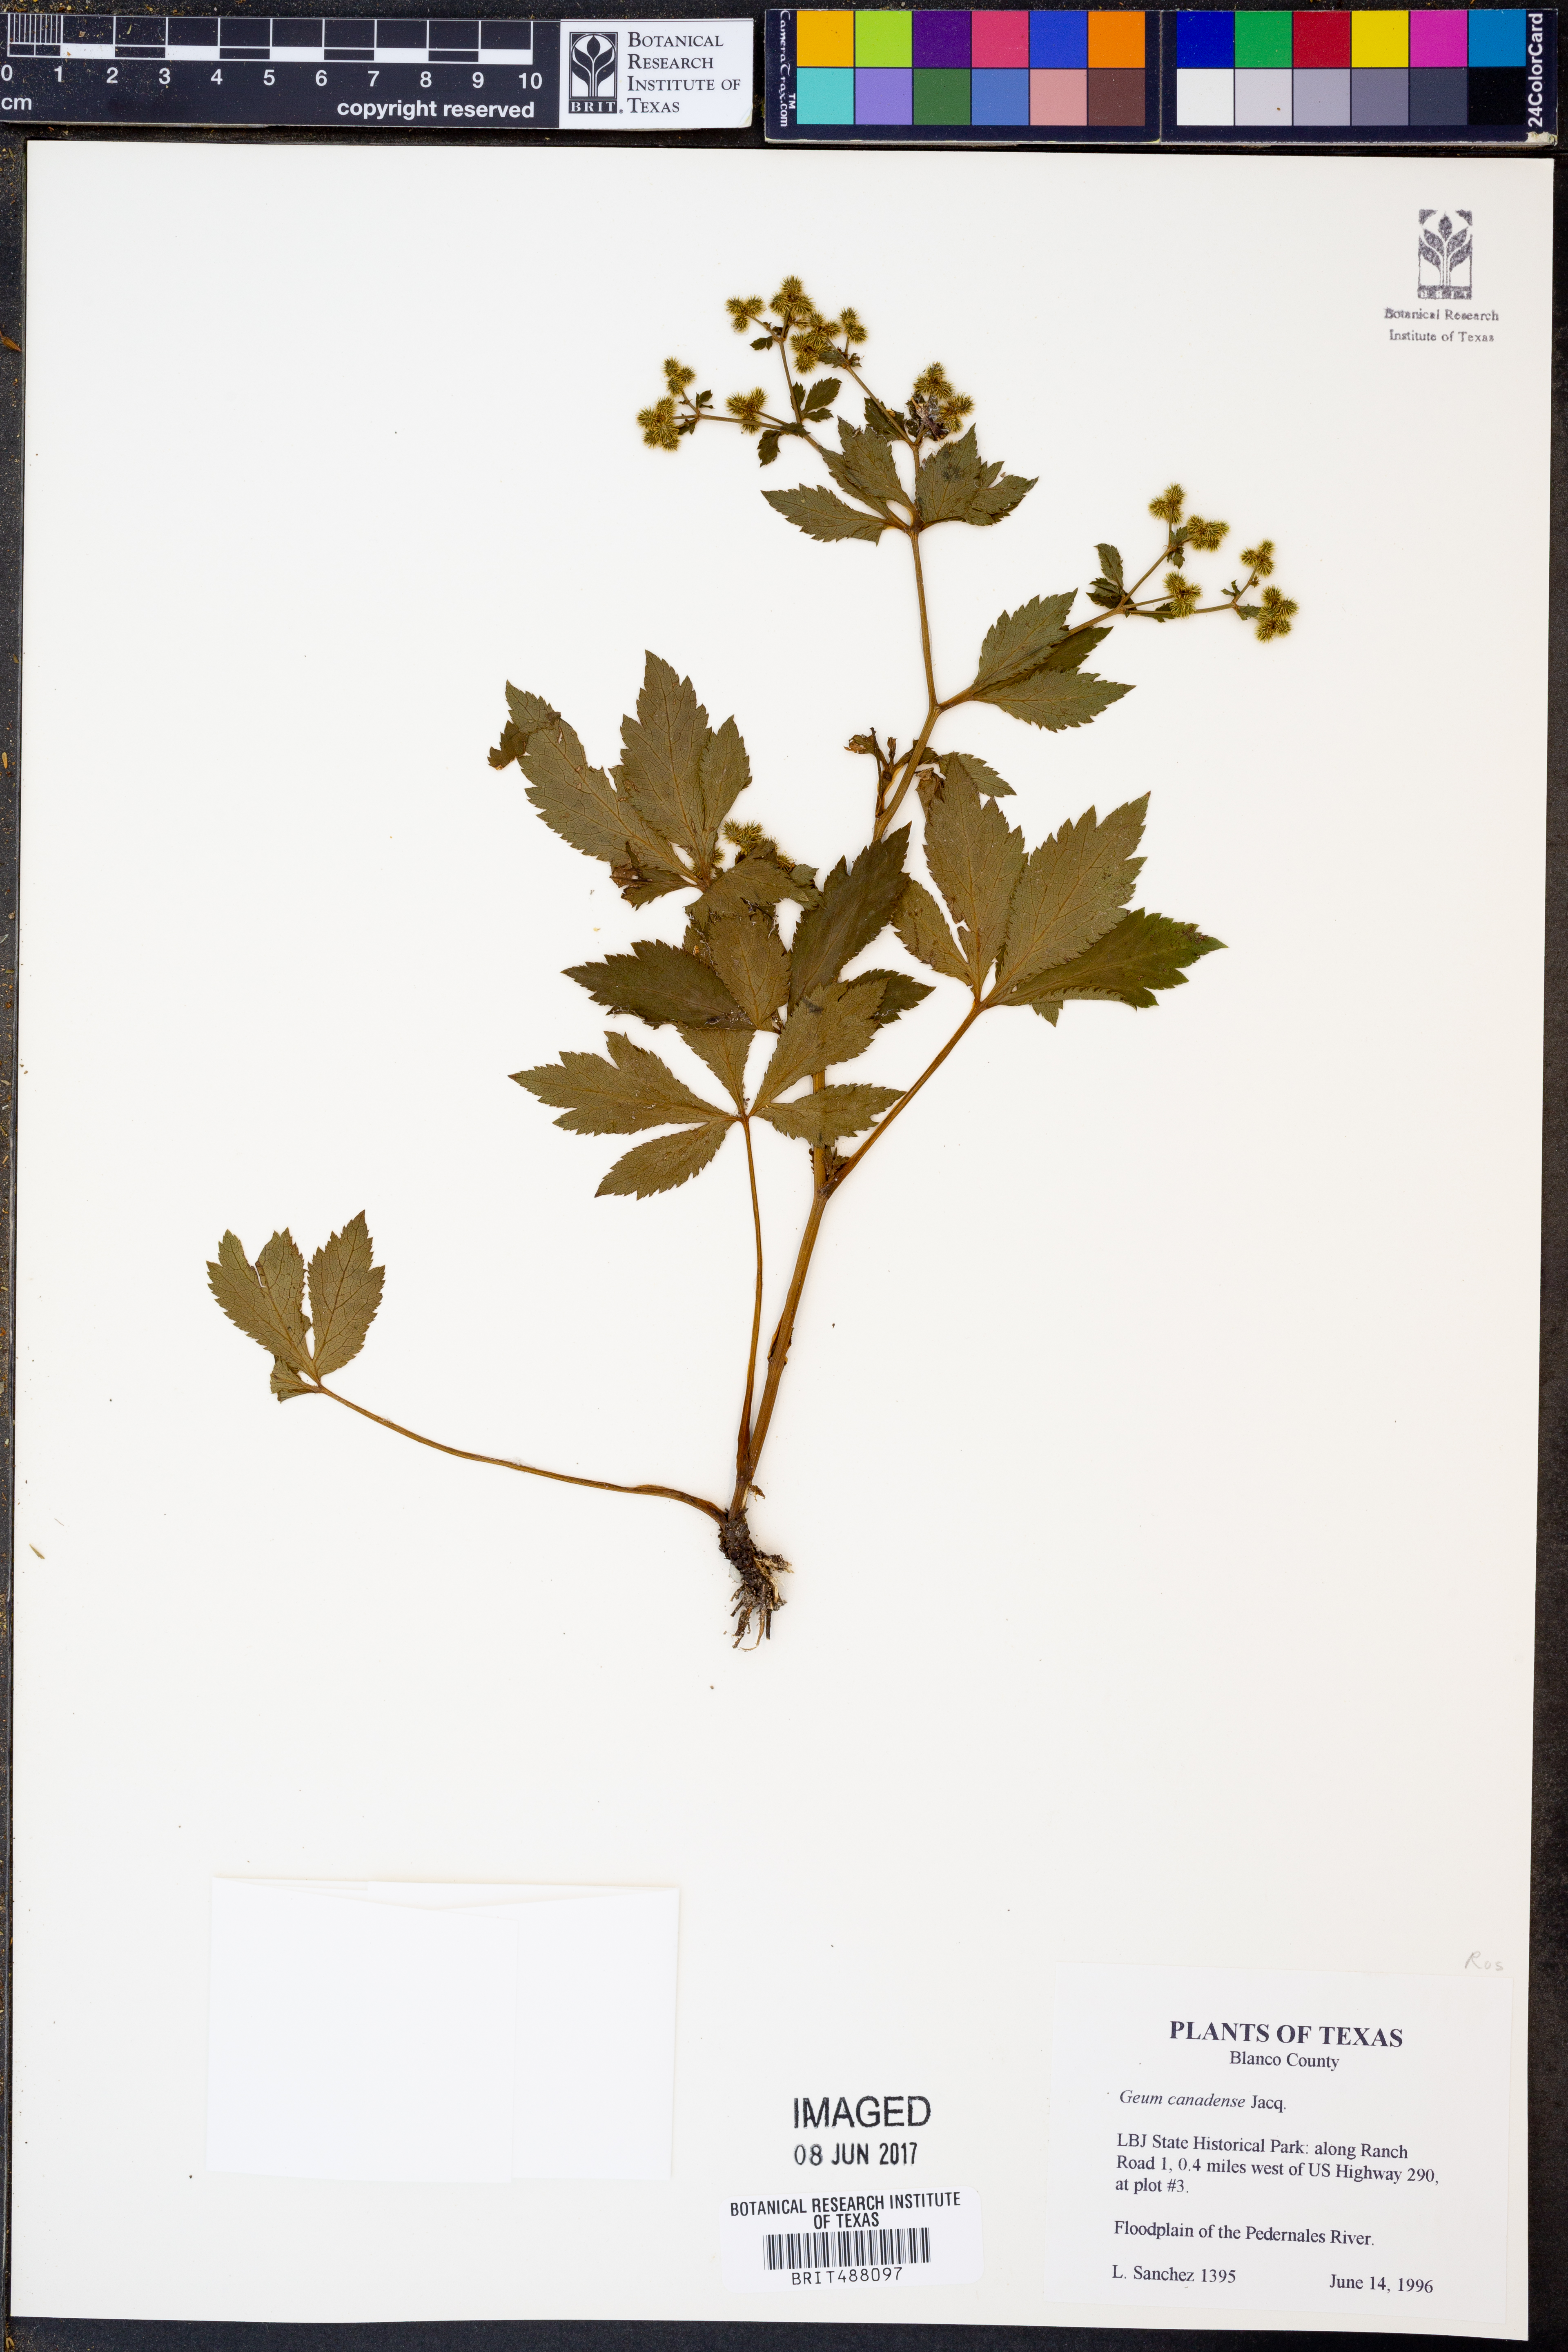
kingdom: Plantae
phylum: Tracheophyta
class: Magnoliopsida
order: Rosales
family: Rosaceae
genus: Geum
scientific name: Geum canadense
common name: White avens
